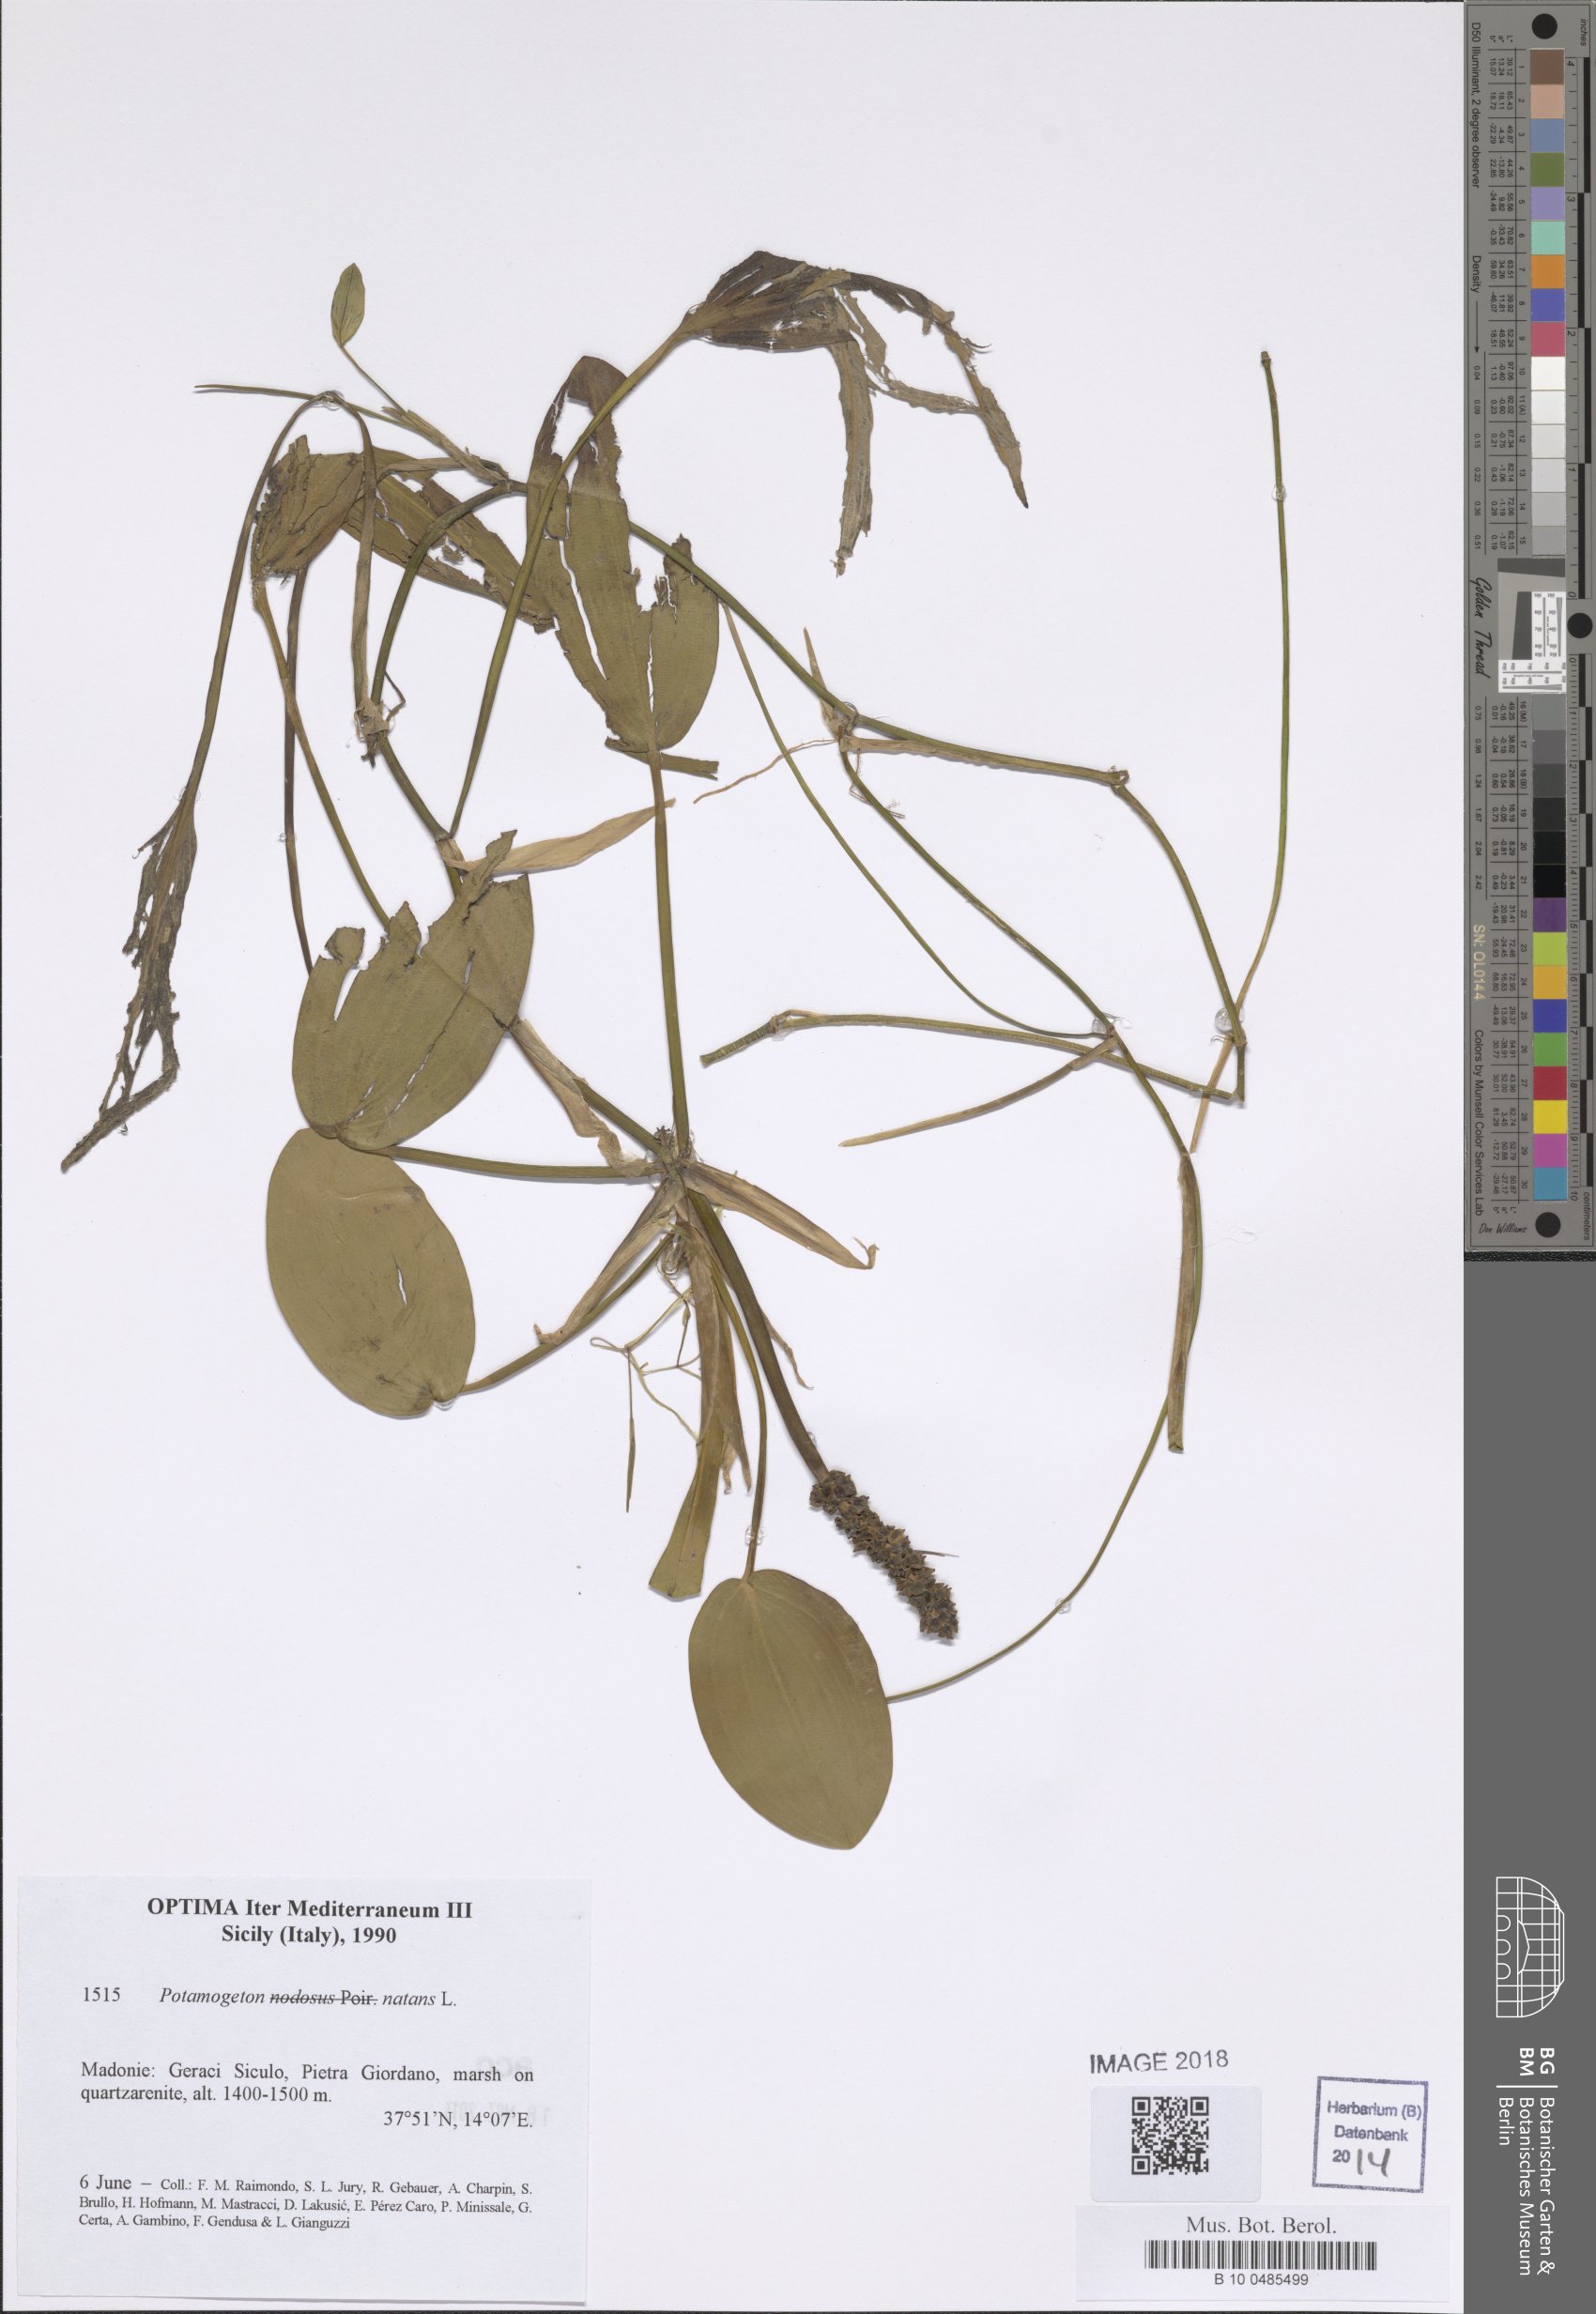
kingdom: Plantae
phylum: Tracheophyta
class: Liliopsida
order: Alismatales
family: Potamogetonaceae
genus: Potamogeton
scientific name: Potamogeton natans
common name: Broad-leaved pondweed
